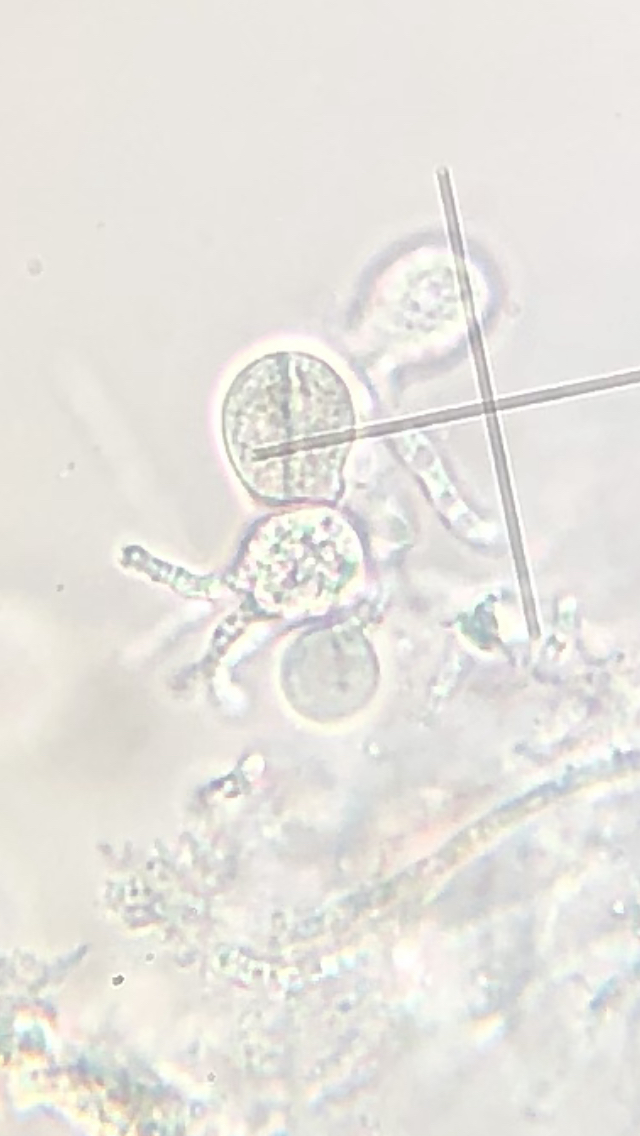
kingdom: Fungi
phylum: Basidiomycota
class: Agaricomycetes
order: Sebacinales
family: Sebacinaceae
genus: Sebacina
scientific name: Sebacina grisea
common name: blågrå bævrehinde
